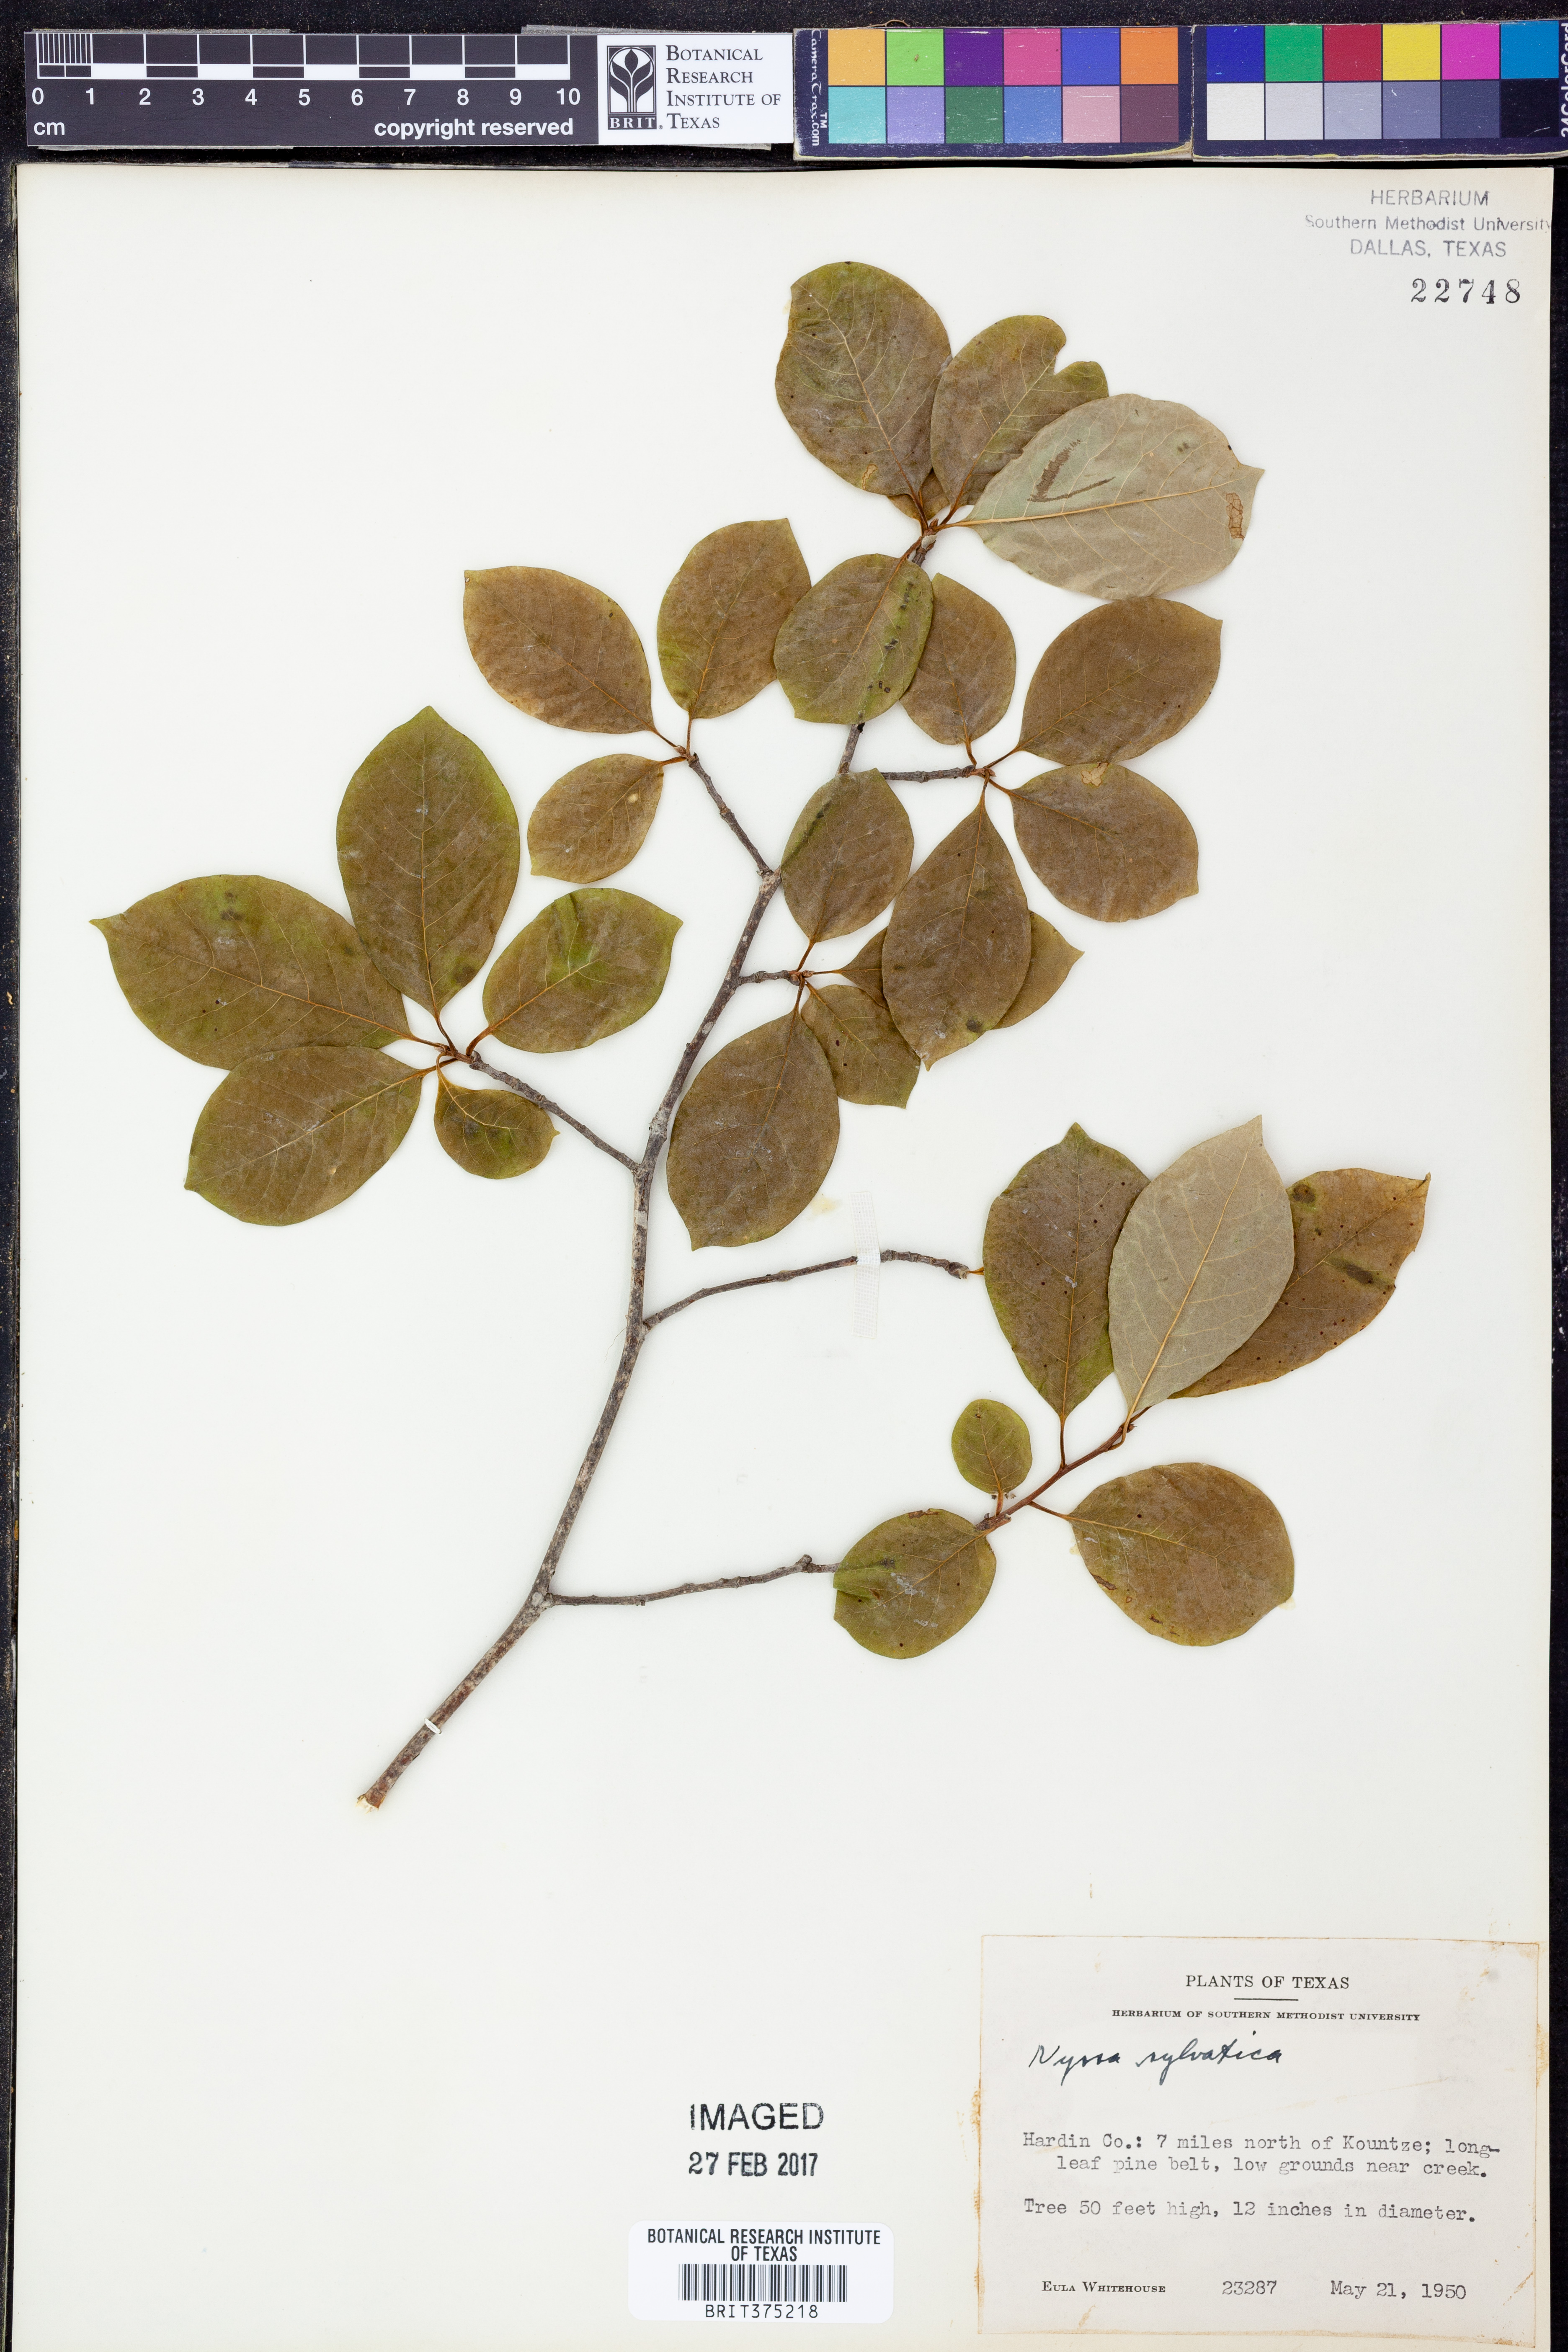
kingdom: Plantae
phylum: Tracheophyta
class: Magnoliopsida
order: Cornales
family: Nyssaceae
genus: Nyssa
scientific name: Nyssa sylvatica
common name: Black tupelo
